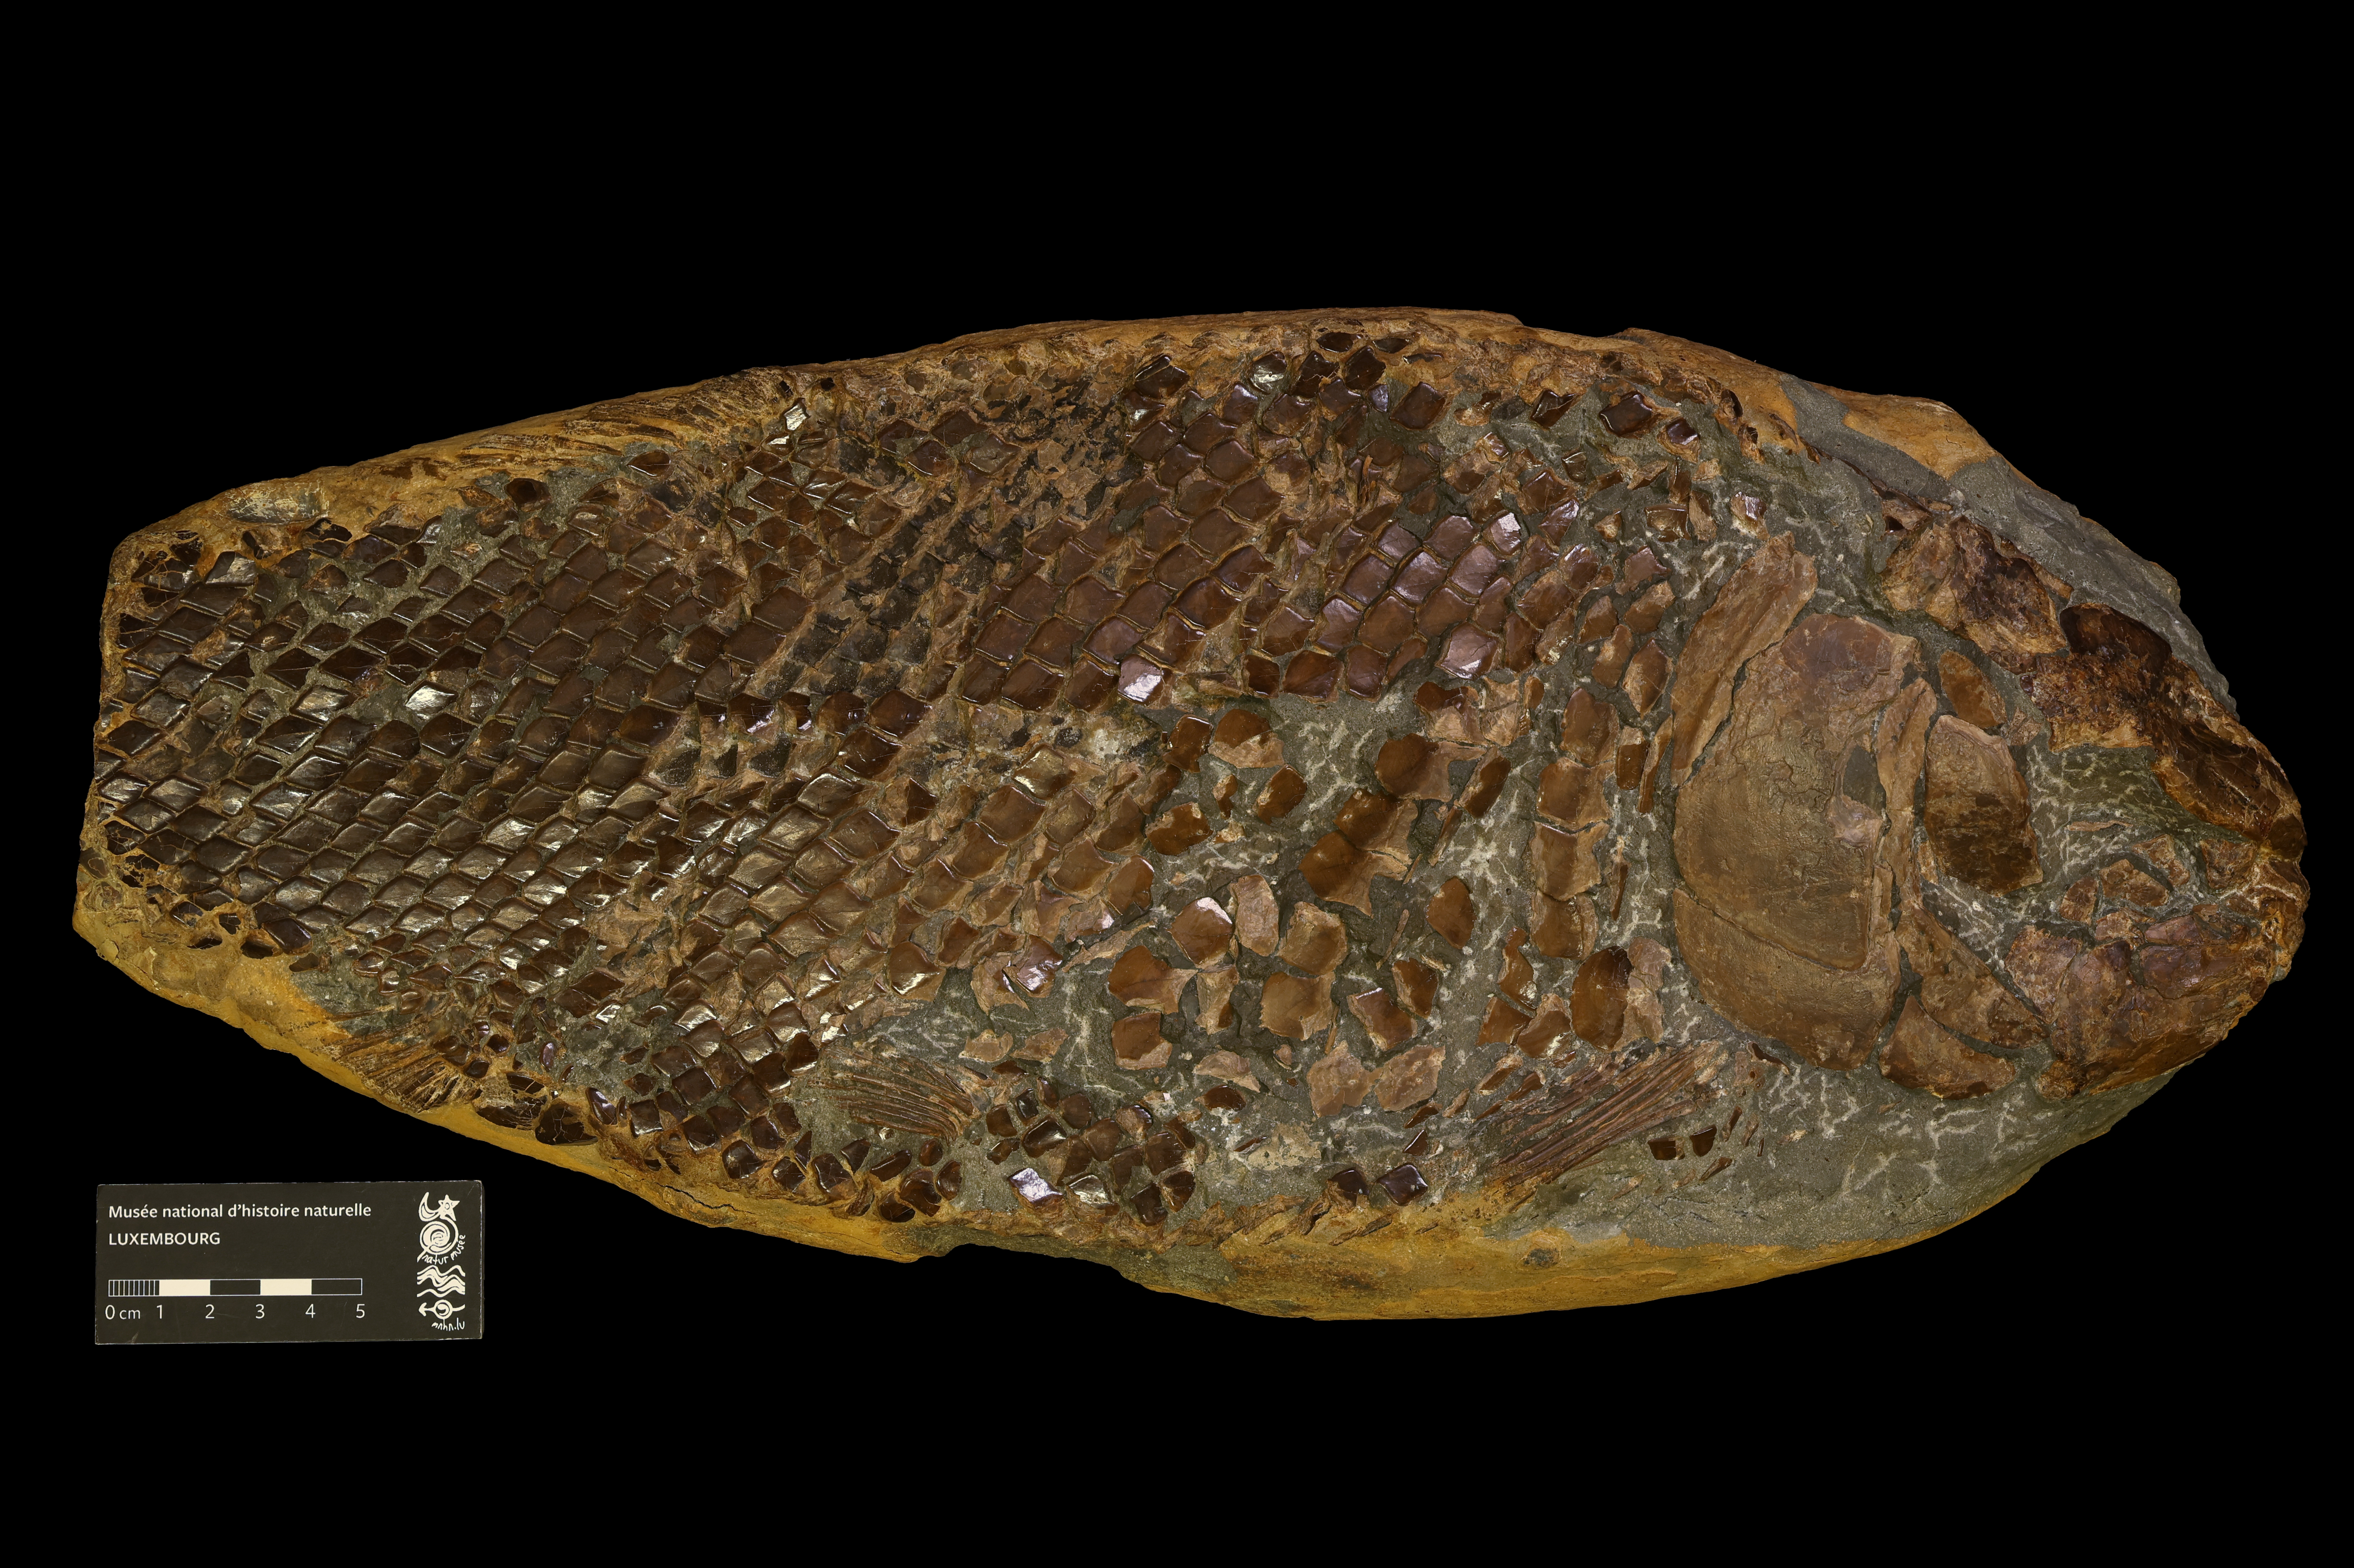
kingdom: Animalia
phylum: Chordata
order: Lepisosteiformes
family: Lepidotidae
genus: Lepidotes
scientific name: Lepidotes elvensis
